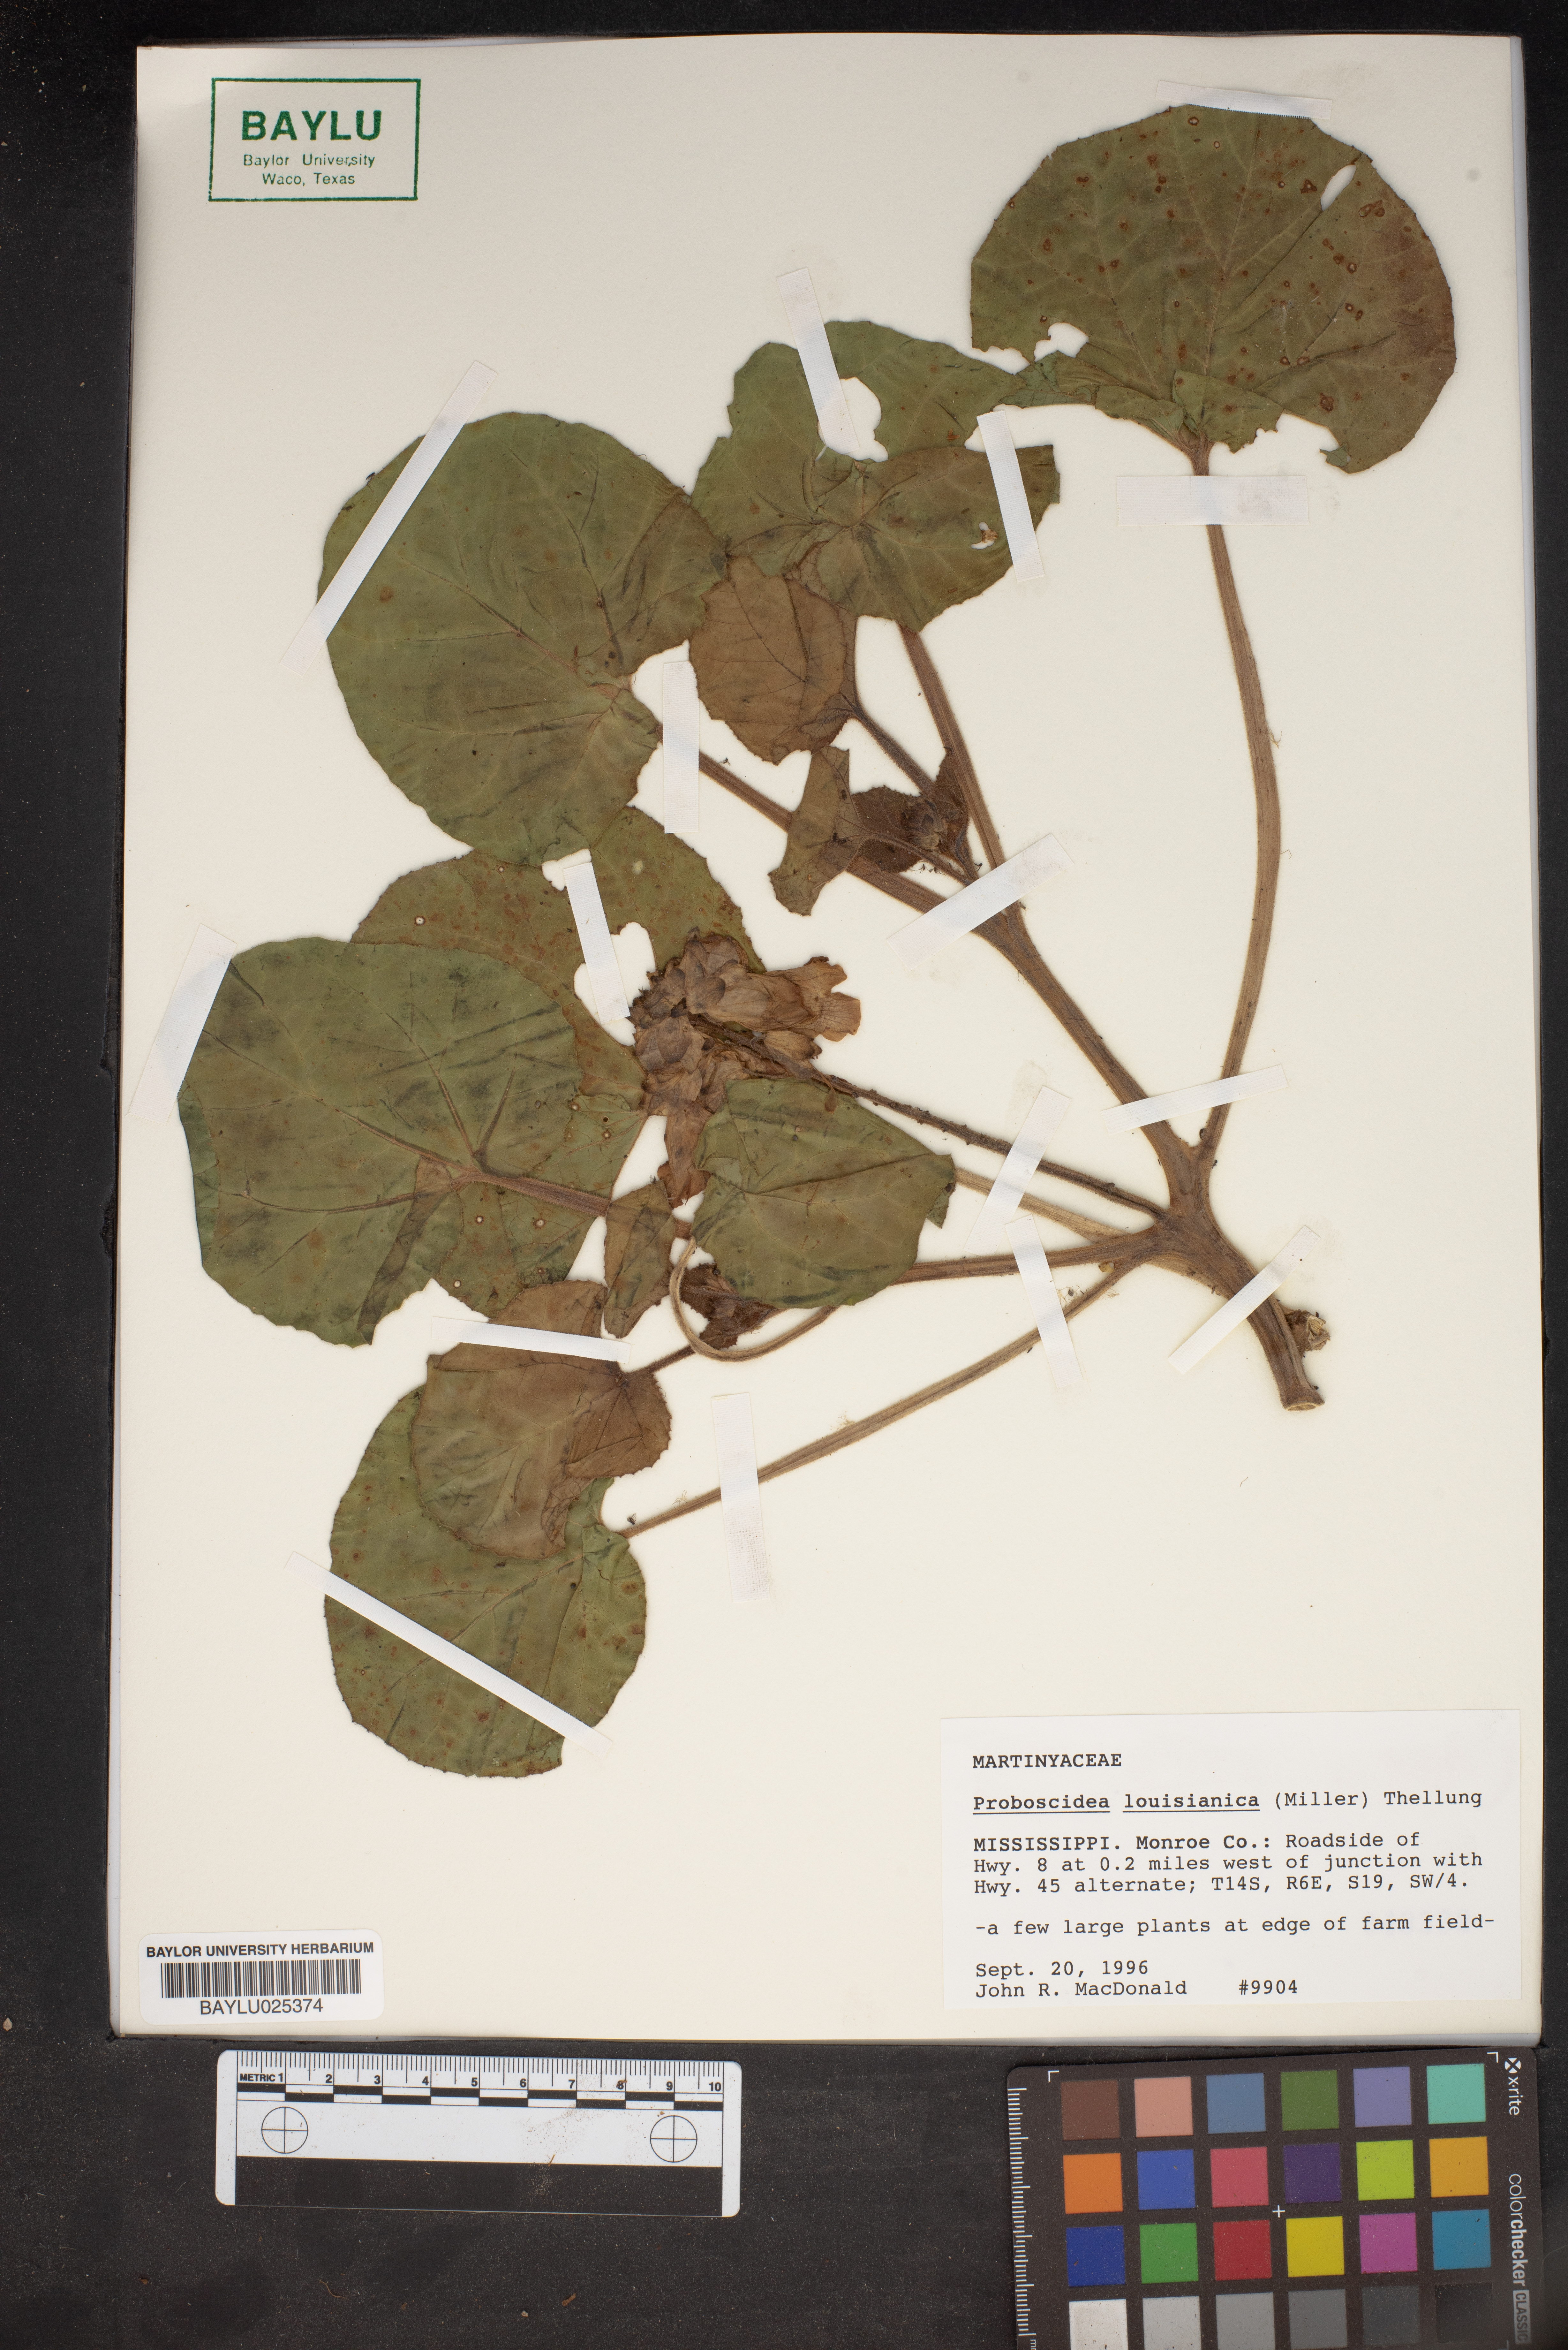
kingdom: Plantae
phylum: Tracheophyta
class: Magnoliopsida
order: Lamiales
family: Martyniaceae
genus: Proboscidea
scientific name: Proboscidea louisianica
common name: Elephant tusks
